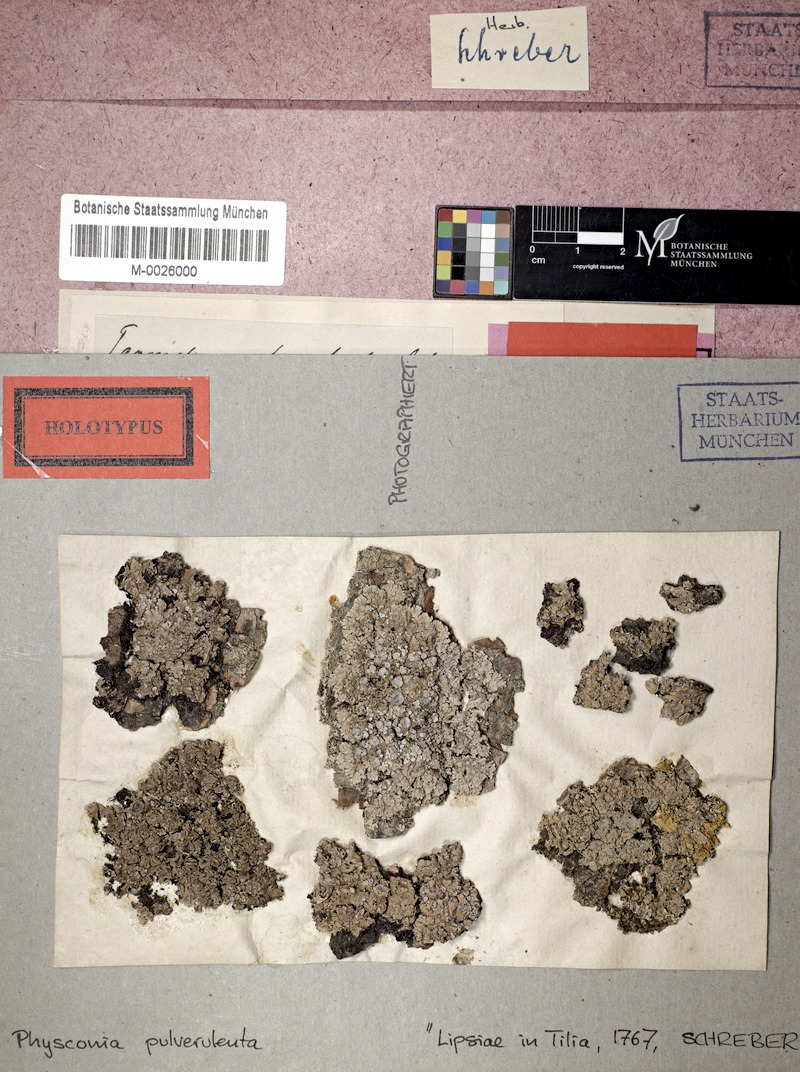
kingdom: Fungi
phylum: Ascomycota
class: Lecanoromycetes
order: Caliciales
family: Physciaceae
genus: Physconia
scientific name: Physconia pulverulenta
